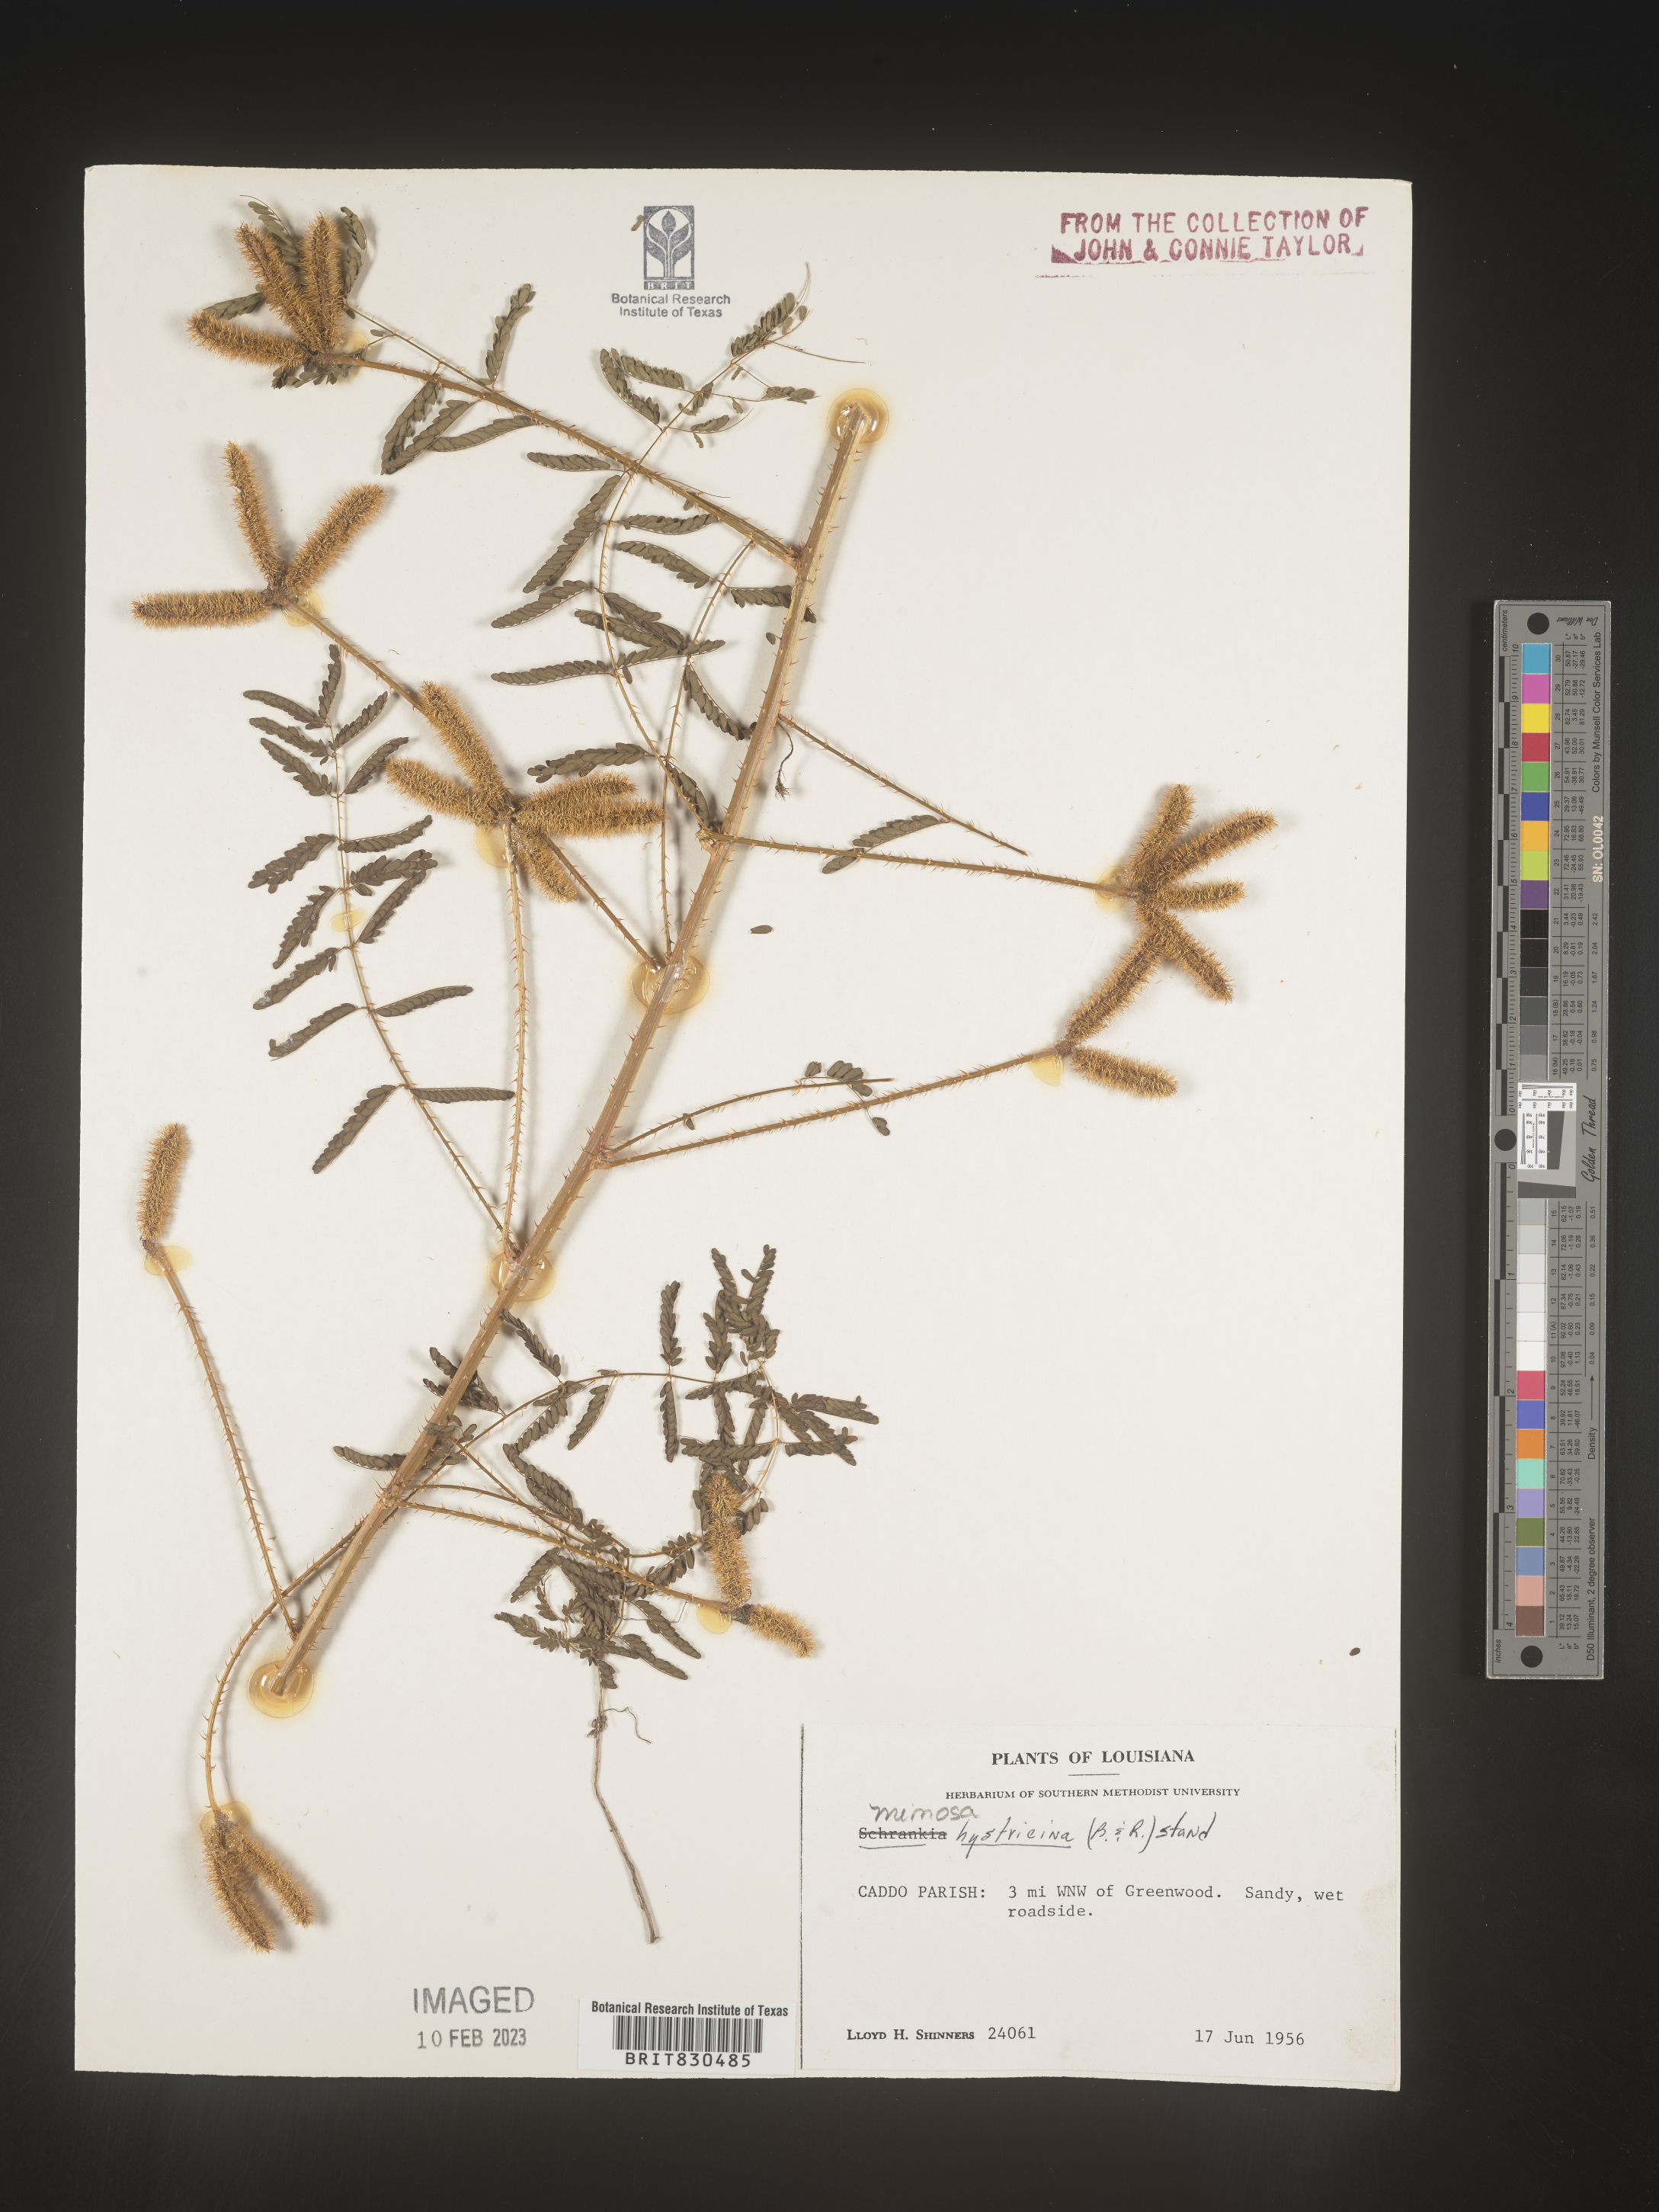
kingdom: Plantae
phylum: Tracheophyta
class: Magnoliopsida
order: Fabales
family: Fabaceae
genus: Mimosa
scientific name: Mimosa hystricina
